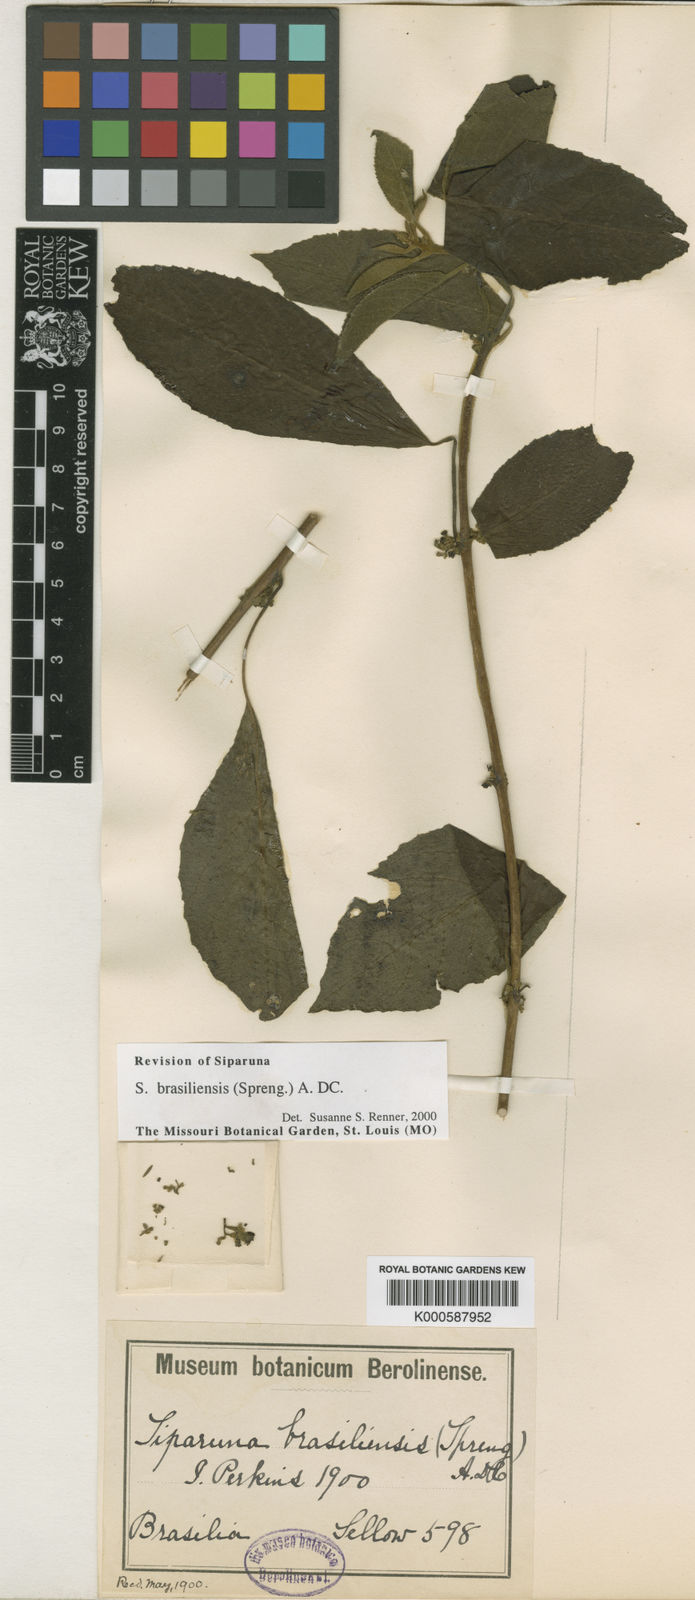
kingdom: Plantae
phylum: Tracheophyta
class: Magnoliopsida
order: Laurales
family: Siparunaceae
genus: Siparuna
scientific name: Siparuna brasiliensis
